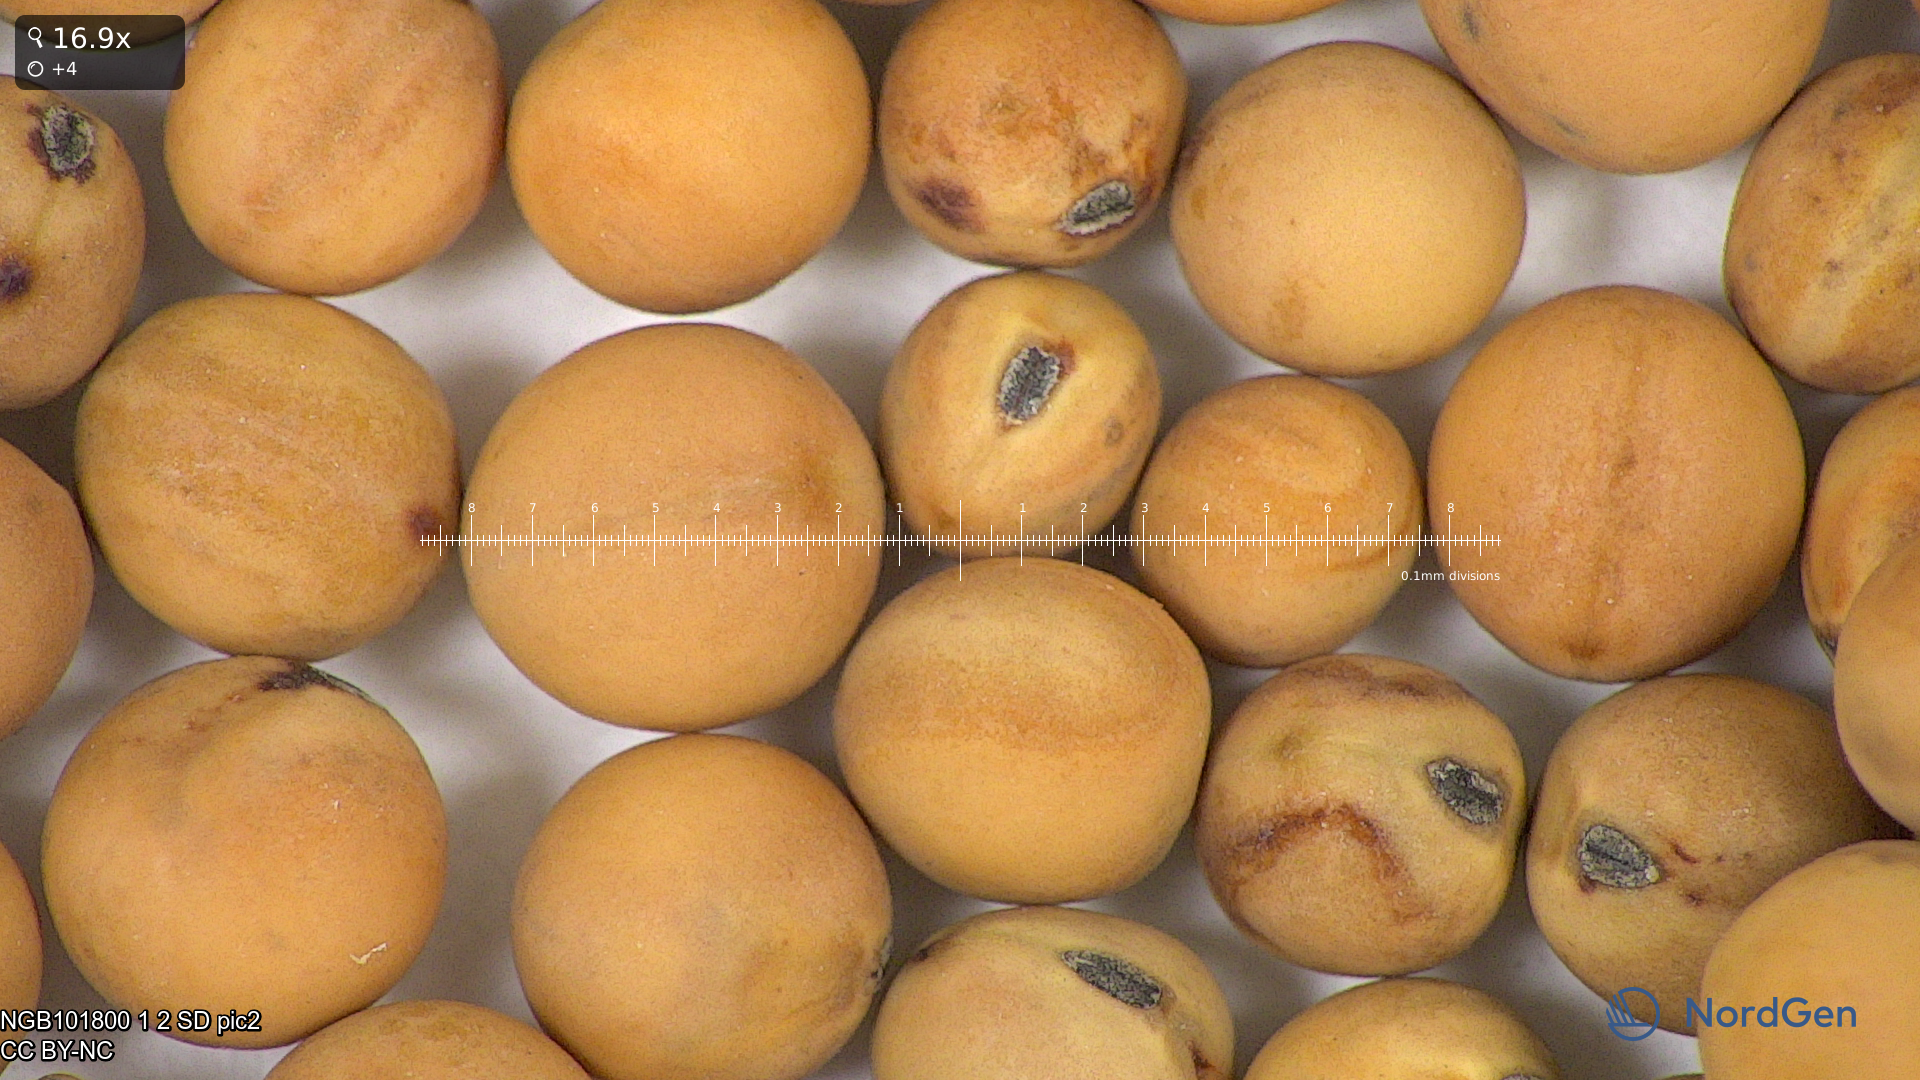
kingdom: Plantae
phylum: Tracheophyta
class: Magnoliopsida
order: Fabales
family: Fabaceae
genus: Lathyrus
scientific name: Lathyrus oleraceus
